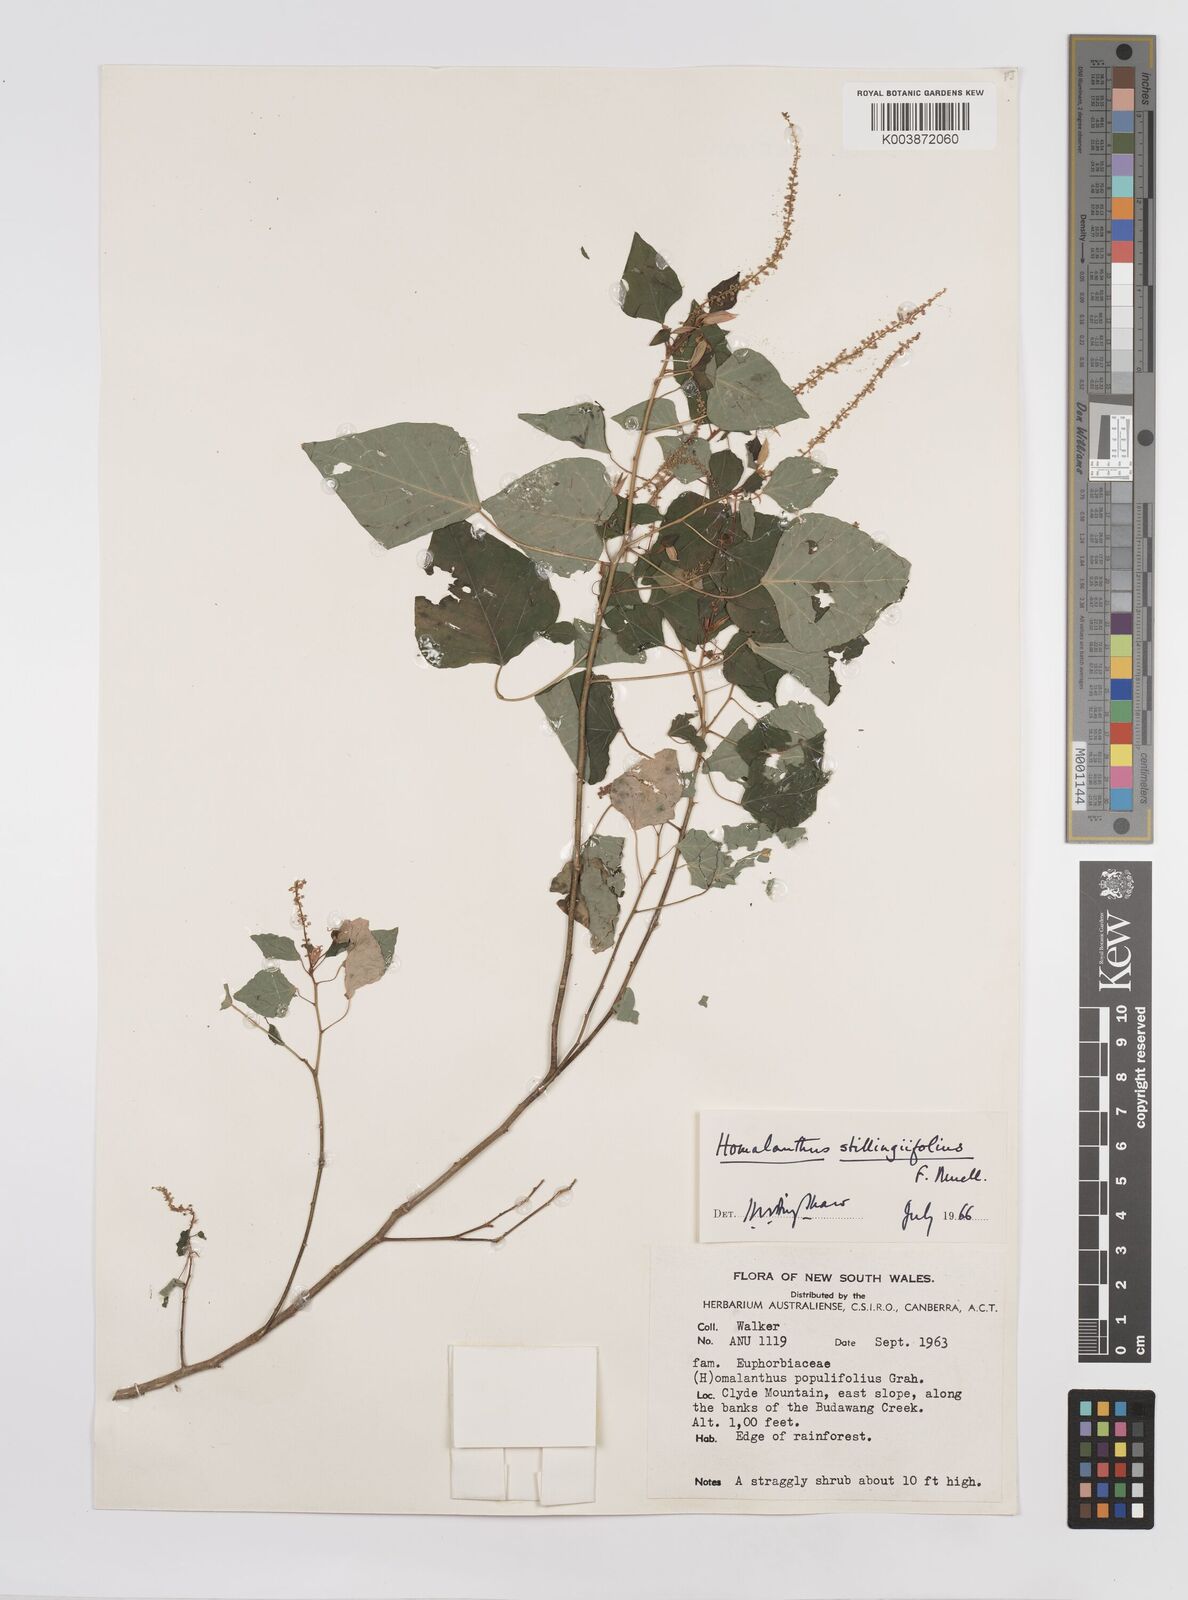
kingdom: Plantae
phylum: Tracheophyta
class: Magnoliopsida
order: Malpighiales
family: Euphorbiaceae
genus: Homalanthus
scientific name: Homalanthus stillingifolius
